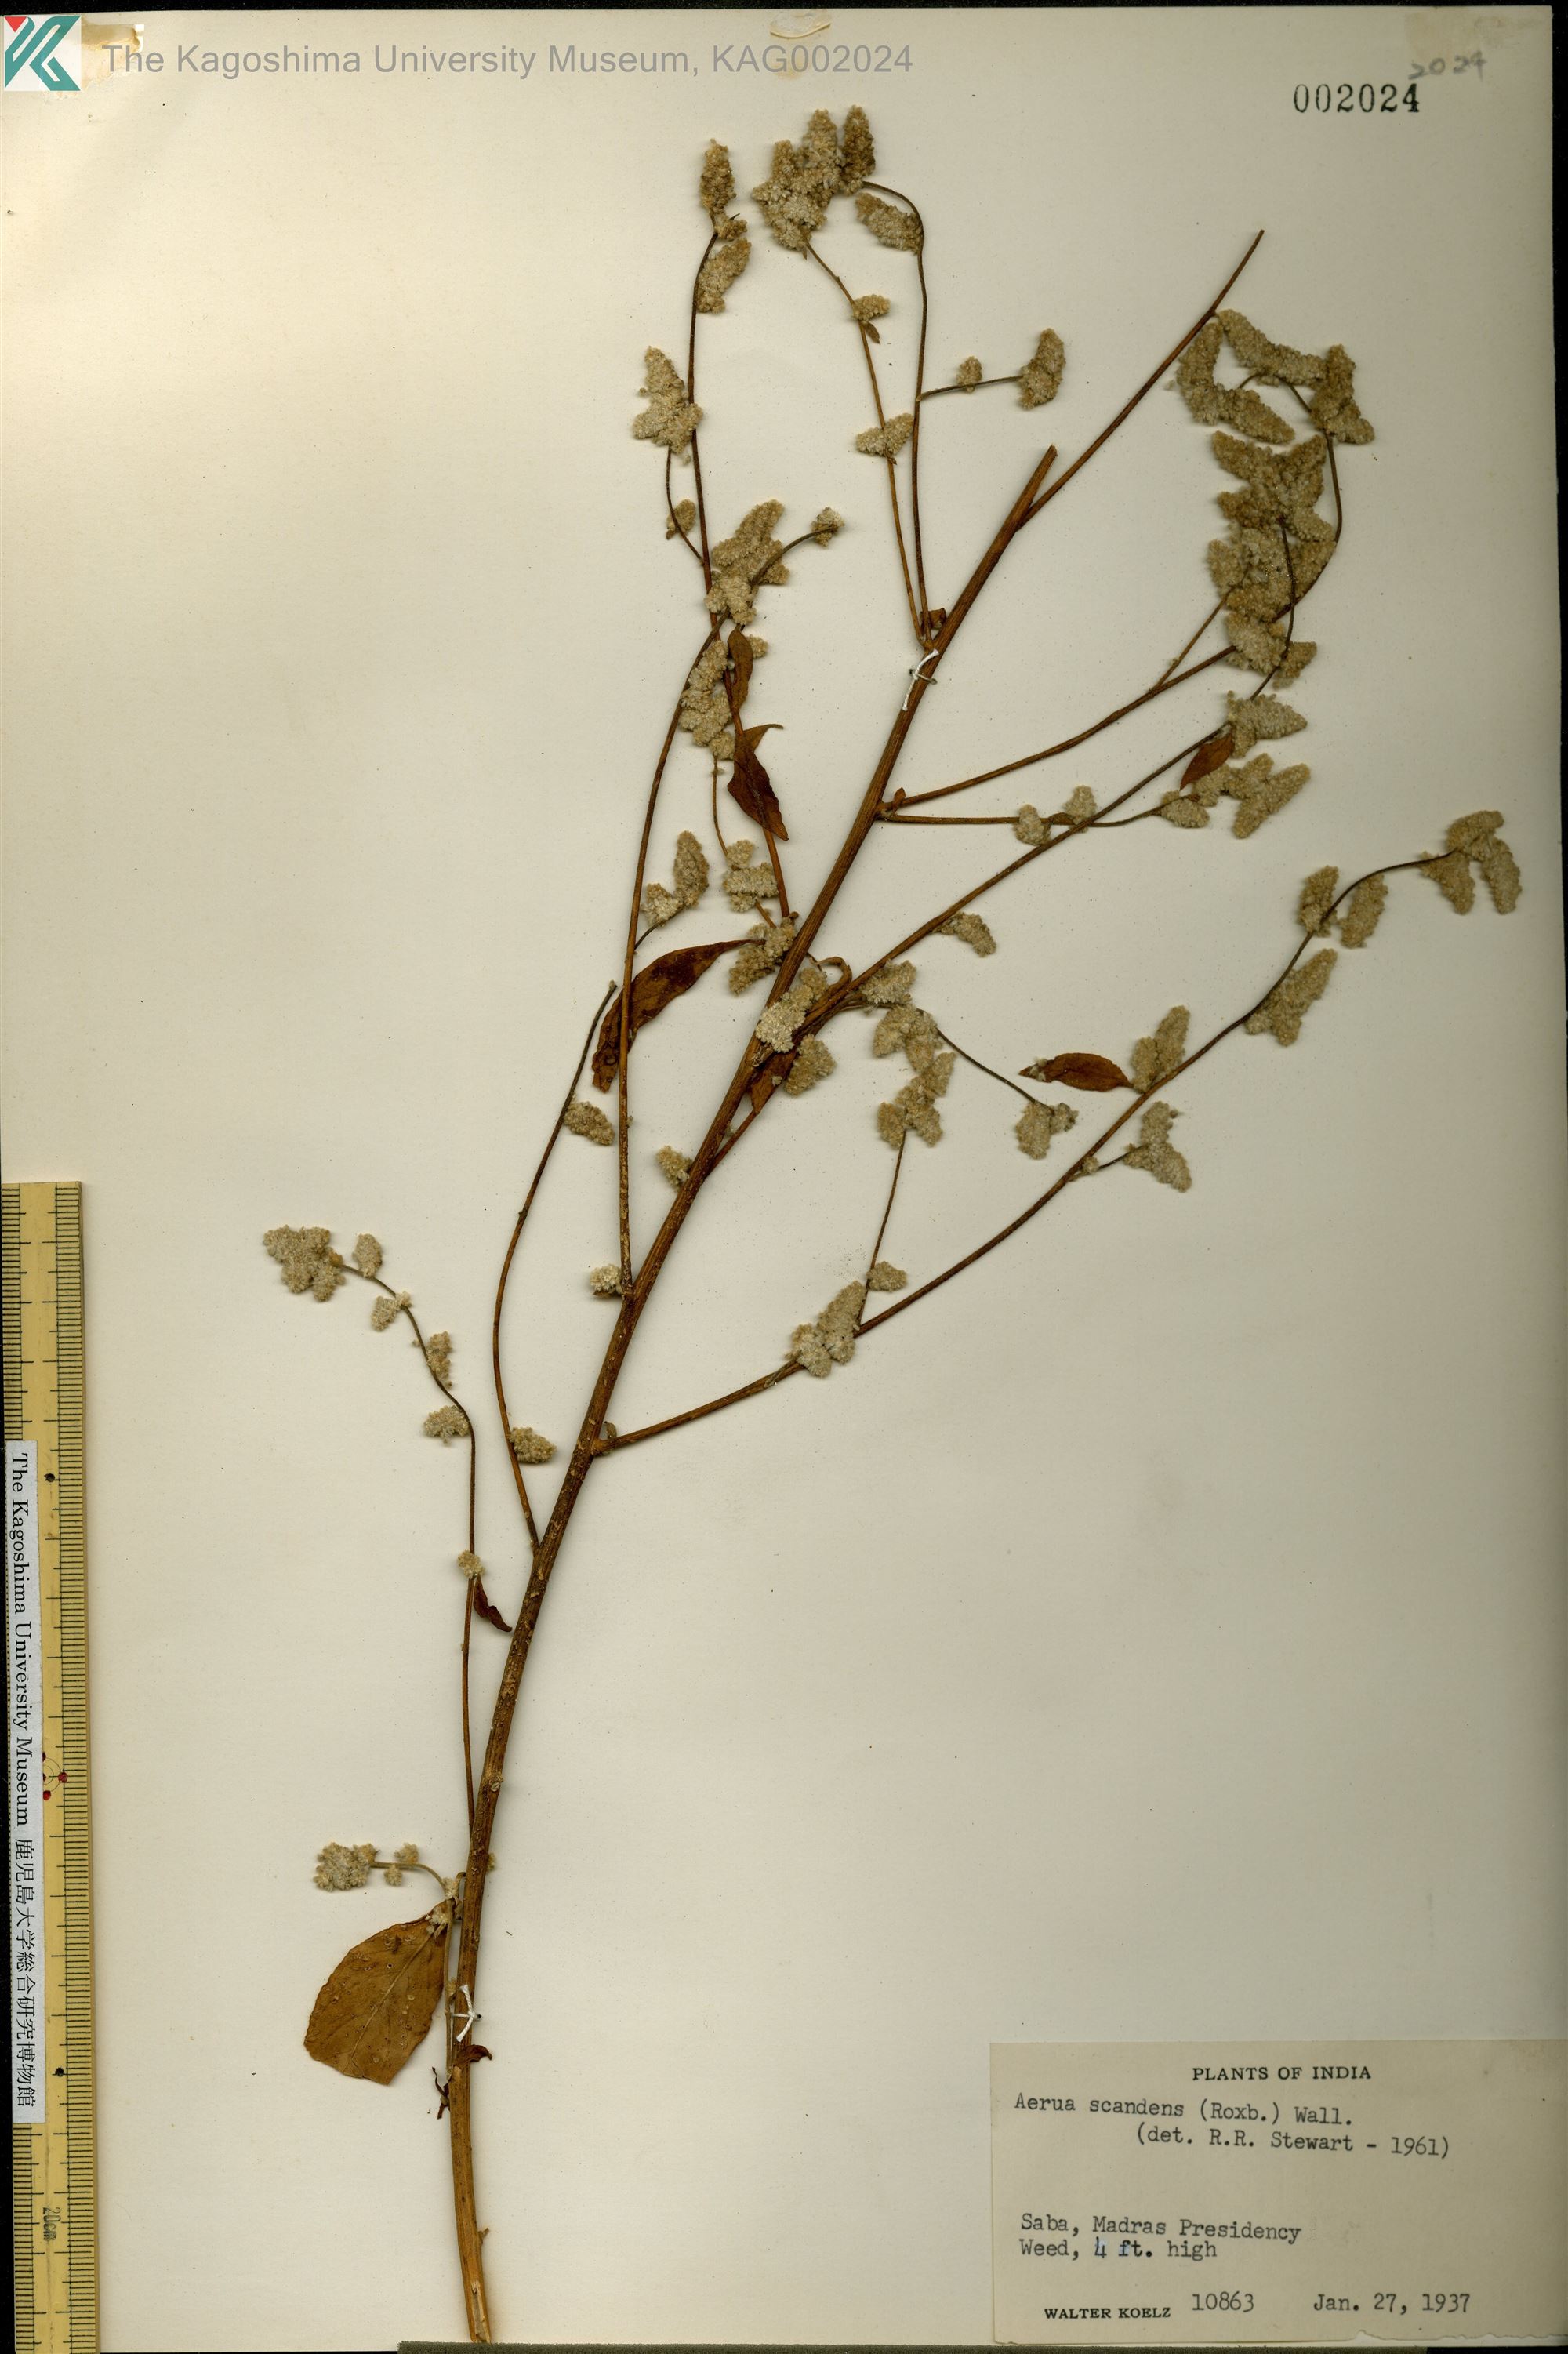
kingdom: Plantae
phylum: Tracheophyta
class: Magnoliopsida
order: Caryophyllales
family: Amaranthaceae
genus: Ouret
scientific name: Ouret sanguinolenta
